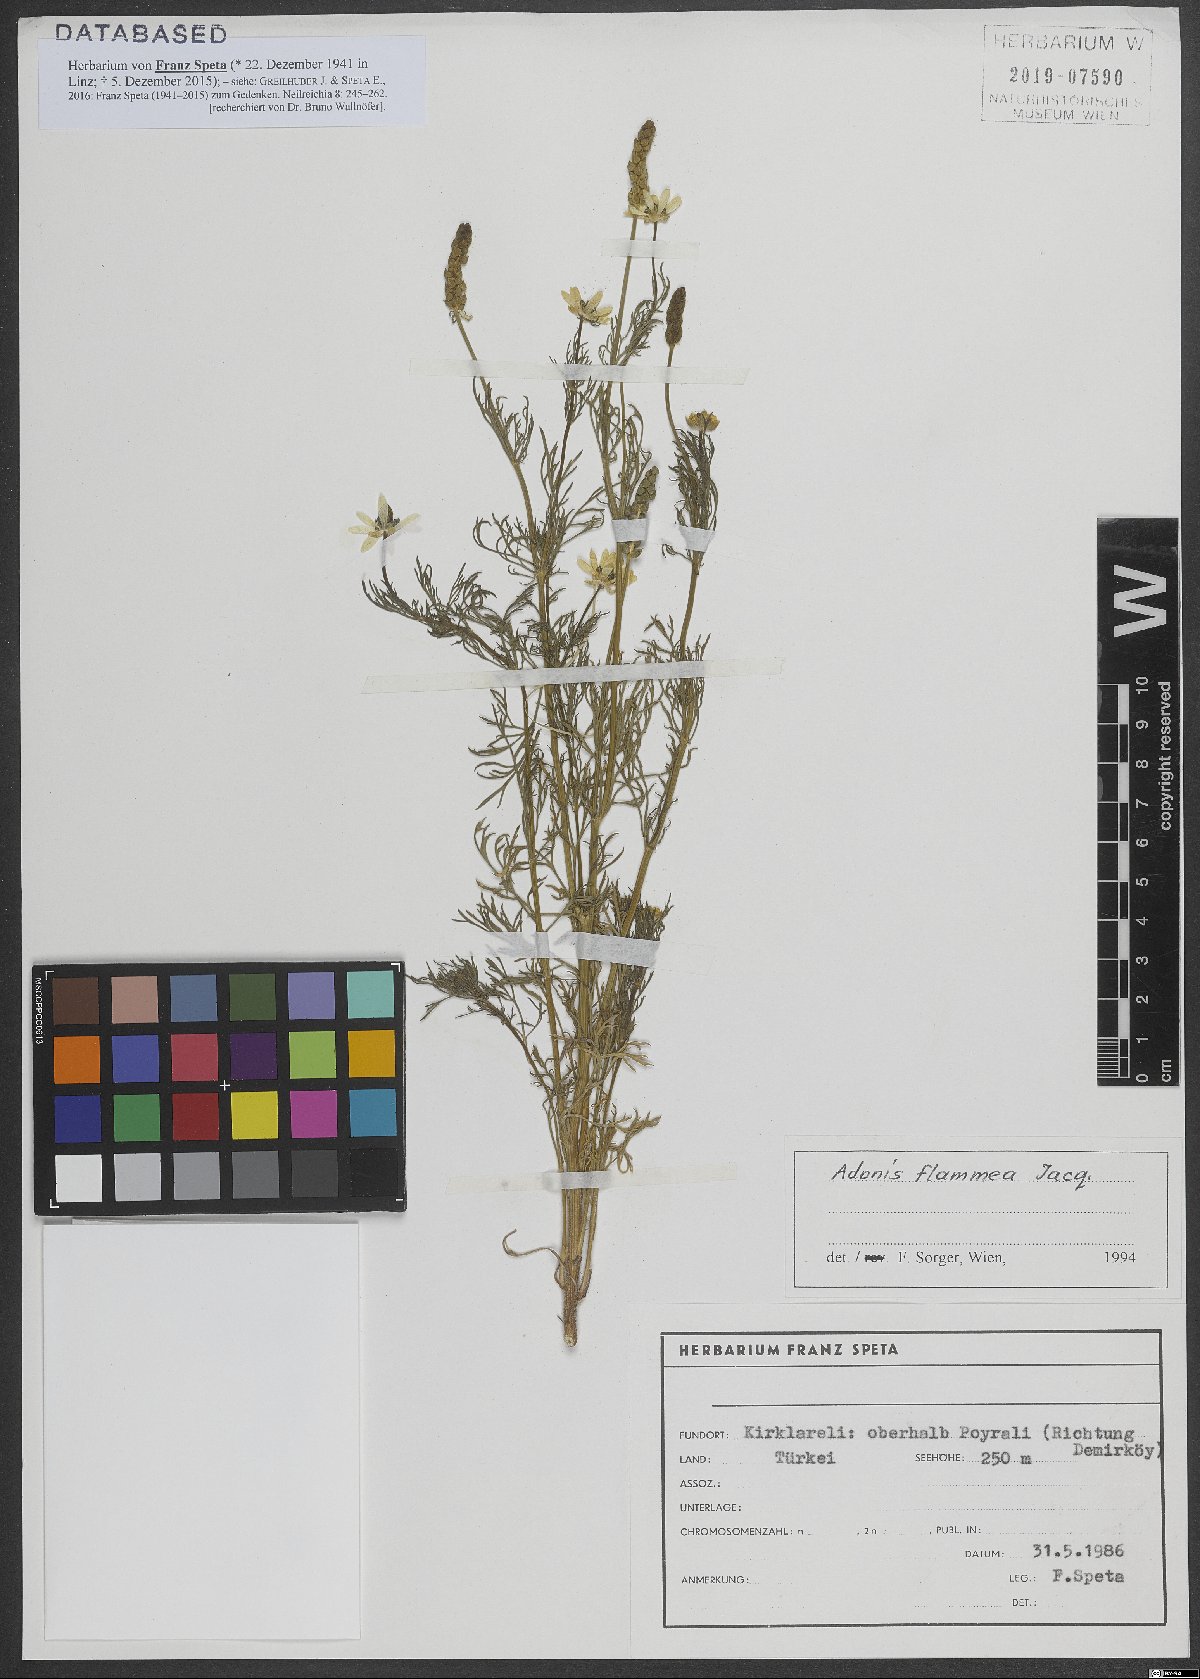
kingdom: Plantae
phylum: Tracheophyta
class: Magnoliopsida
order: Ranunculales
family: Ranunculaceae
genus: Adonis
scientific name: Adonis flammea
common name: Large pheasant's-eye
